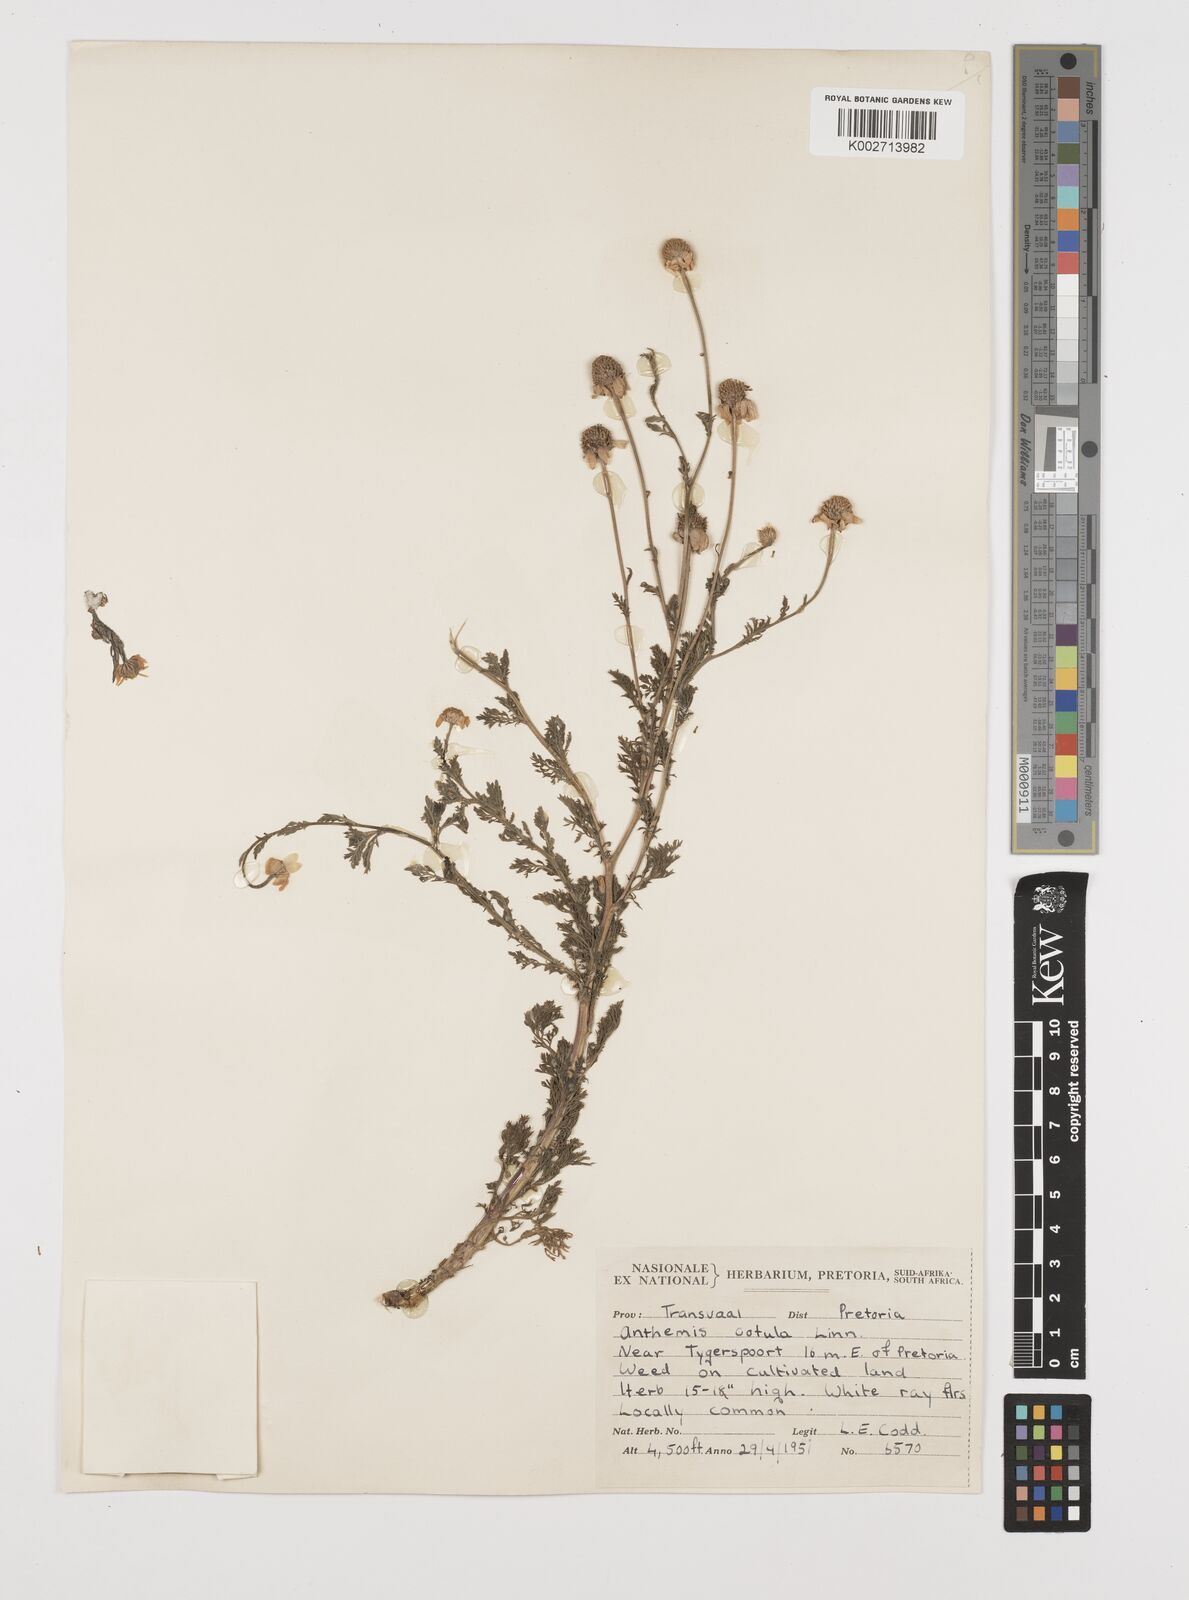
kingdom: Plantae
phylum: Tracheophyta
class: Magnoliopsida
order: Asterales
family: Asteraceae
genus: Anthemis
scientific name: Anthemis cotula
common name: Stinking chamomile
